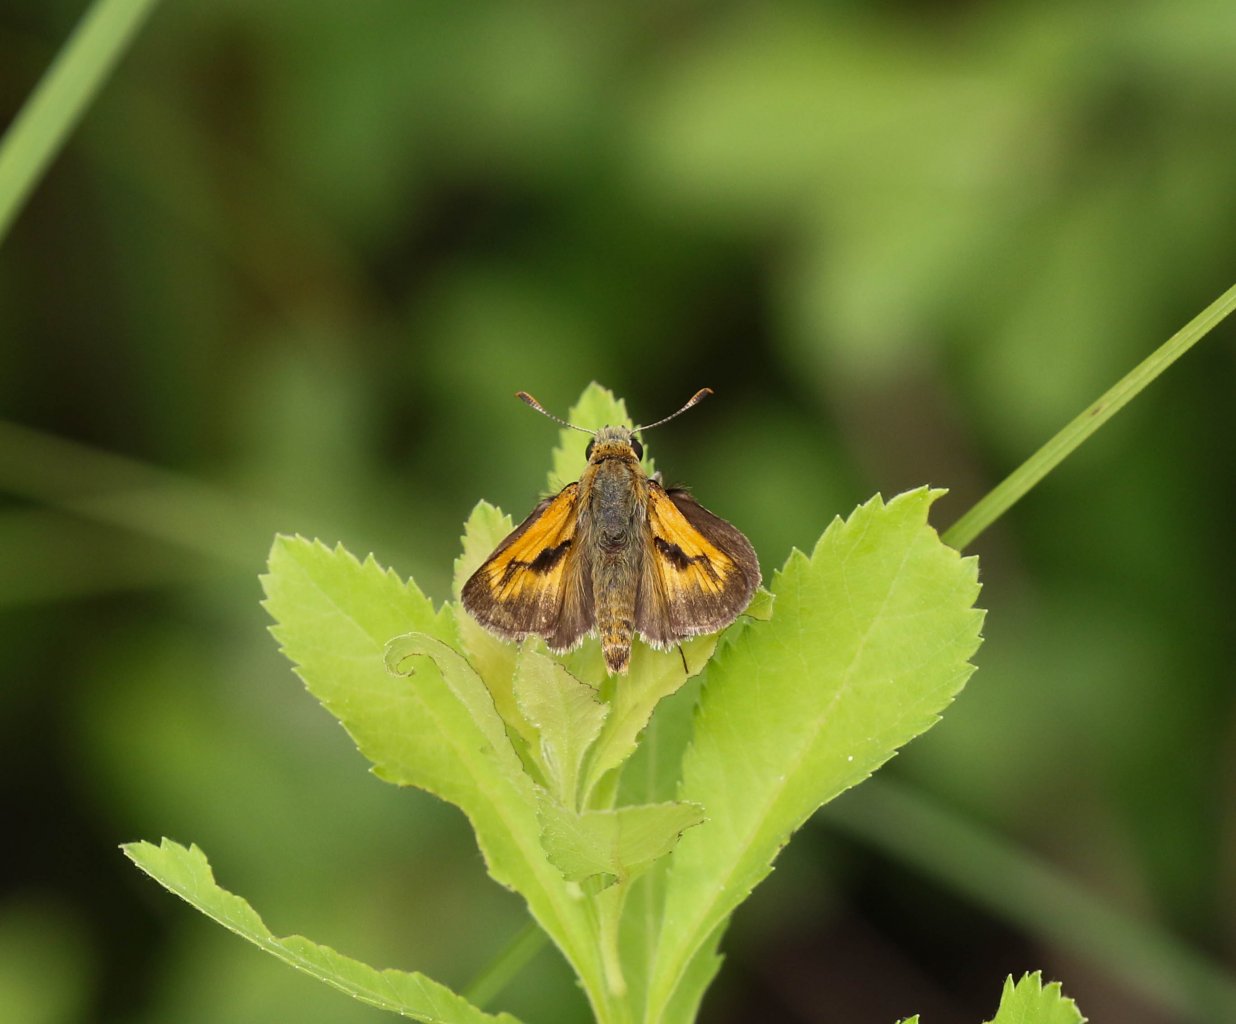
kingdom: Animalia
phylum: Arthropoda
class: Insecta
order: Lepidoptera
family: Hesperiidae
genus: Polites
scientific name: Polites
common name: Long Dash Skipper
